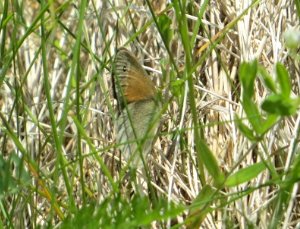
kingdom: Animalia
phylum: Arthropoda
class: Insecta
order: Lepidoptera
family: Nymphalidae
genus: Coenonympha
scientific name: Coenonympha tullia
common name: Large Heath
